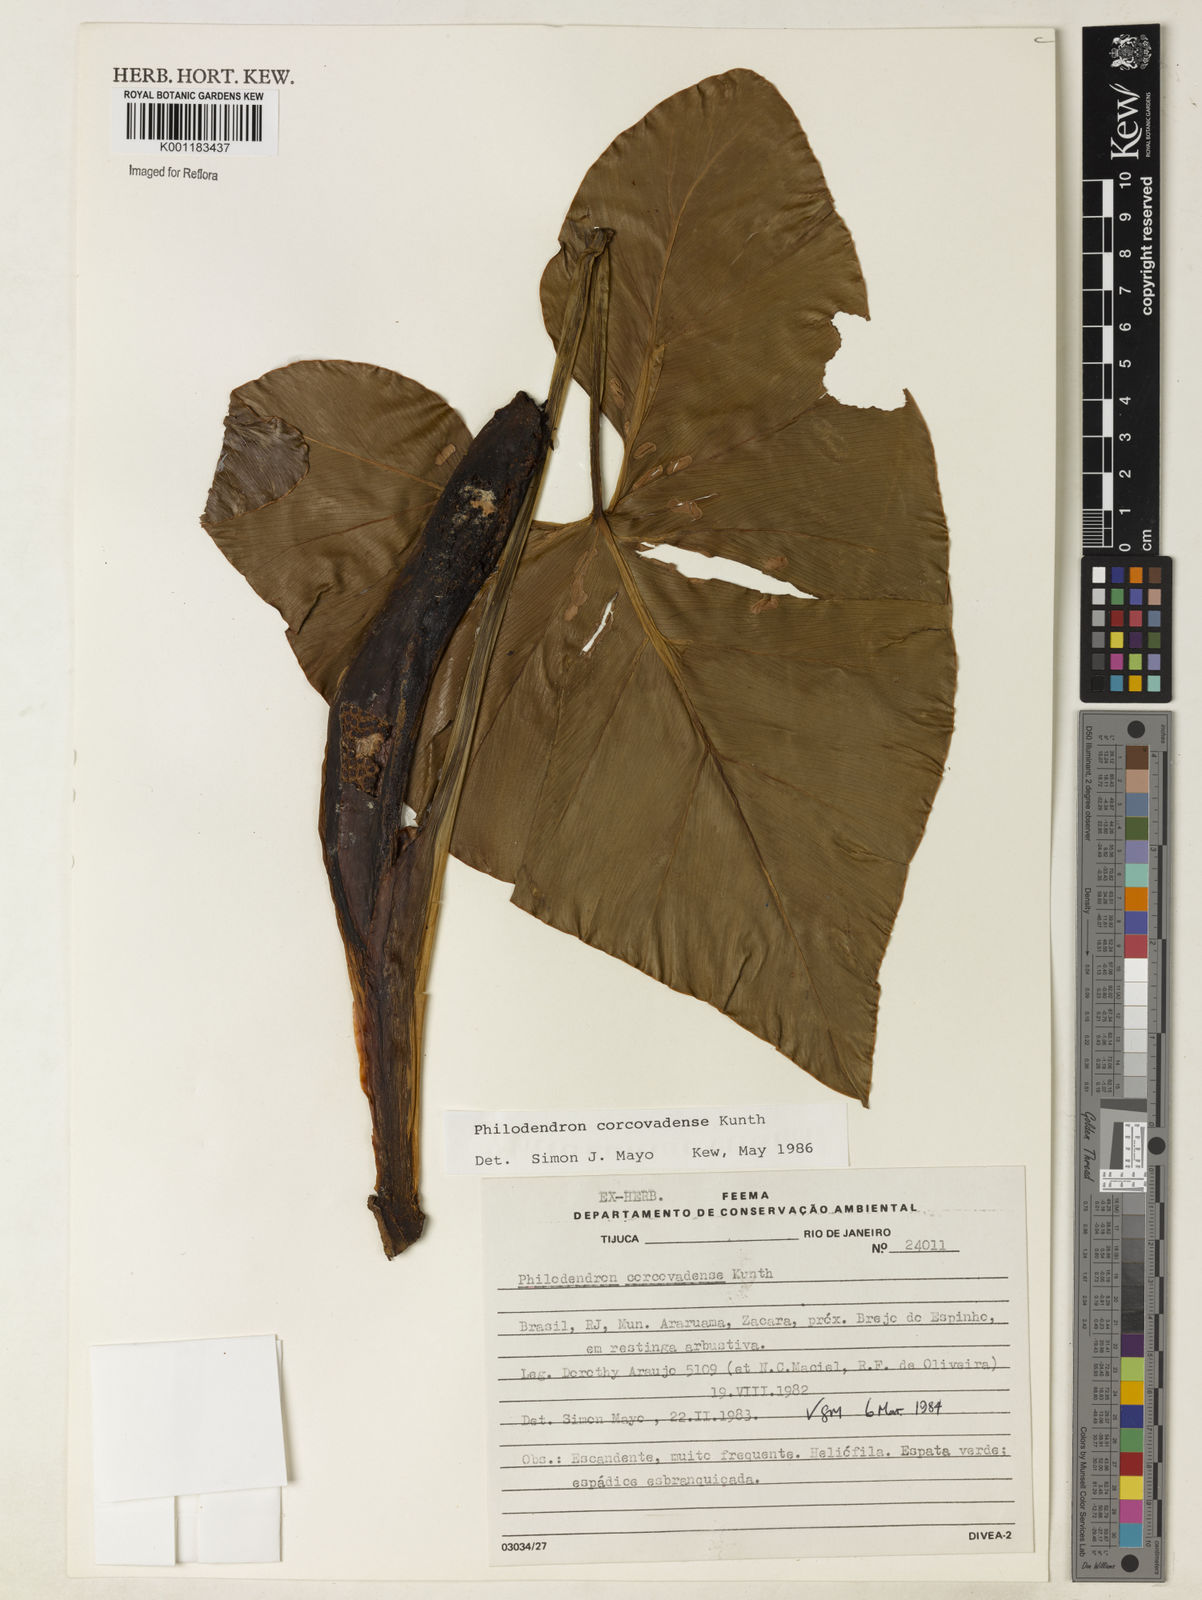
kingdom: Plantae
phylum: Tracheophyta
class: Liliopsida
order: Alismatales
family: Araceae
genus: Thaumatophyllum
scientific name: Thaumatophyllum corcovadense
